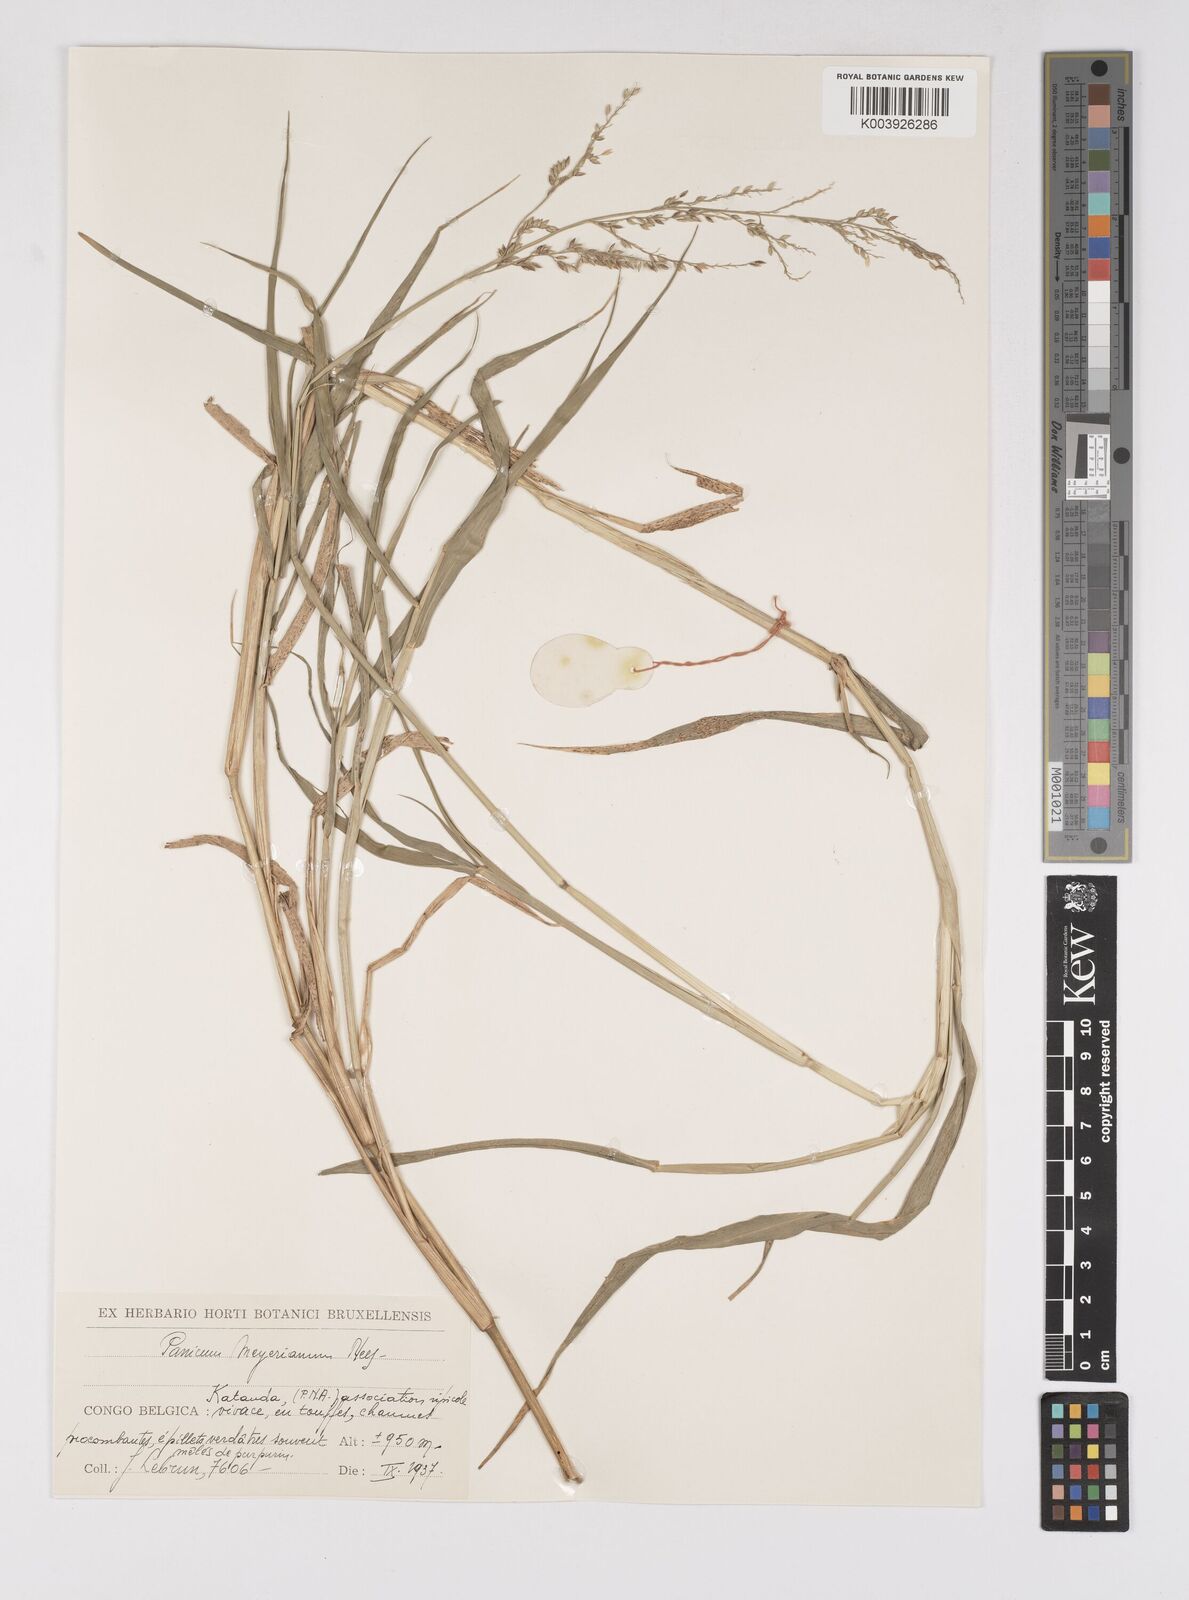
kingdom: Plantae
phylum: Tracheophyta
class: Liliopsida
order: Poales
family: Poaceae
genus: Eriochloa
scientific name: Eriochloa meyeriana
